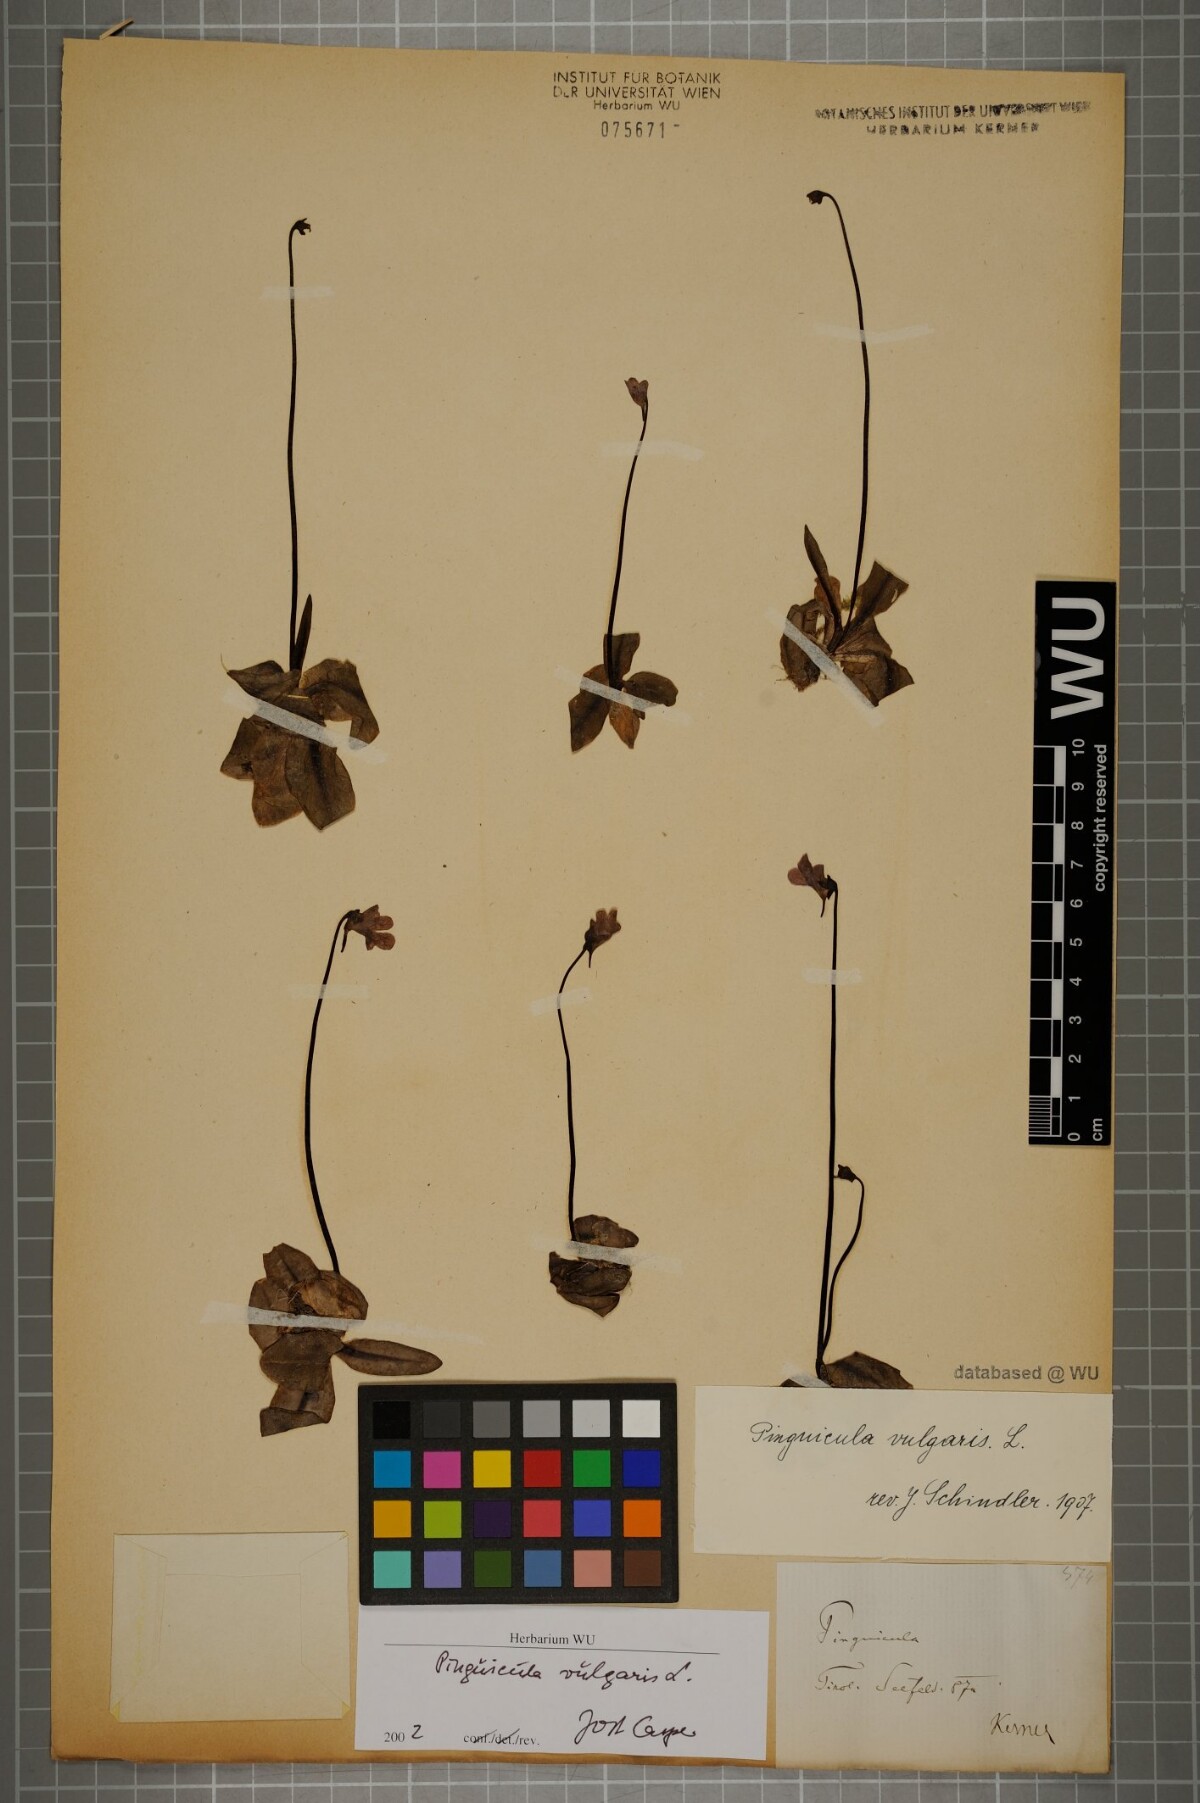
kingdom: Plantae
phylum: Tracheophyta
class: Magnoliopsida
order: Lamiales
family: Lentibulariaceae
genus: Pinguicula
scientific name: Pinguicula vulgaris
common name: Common butterwort
